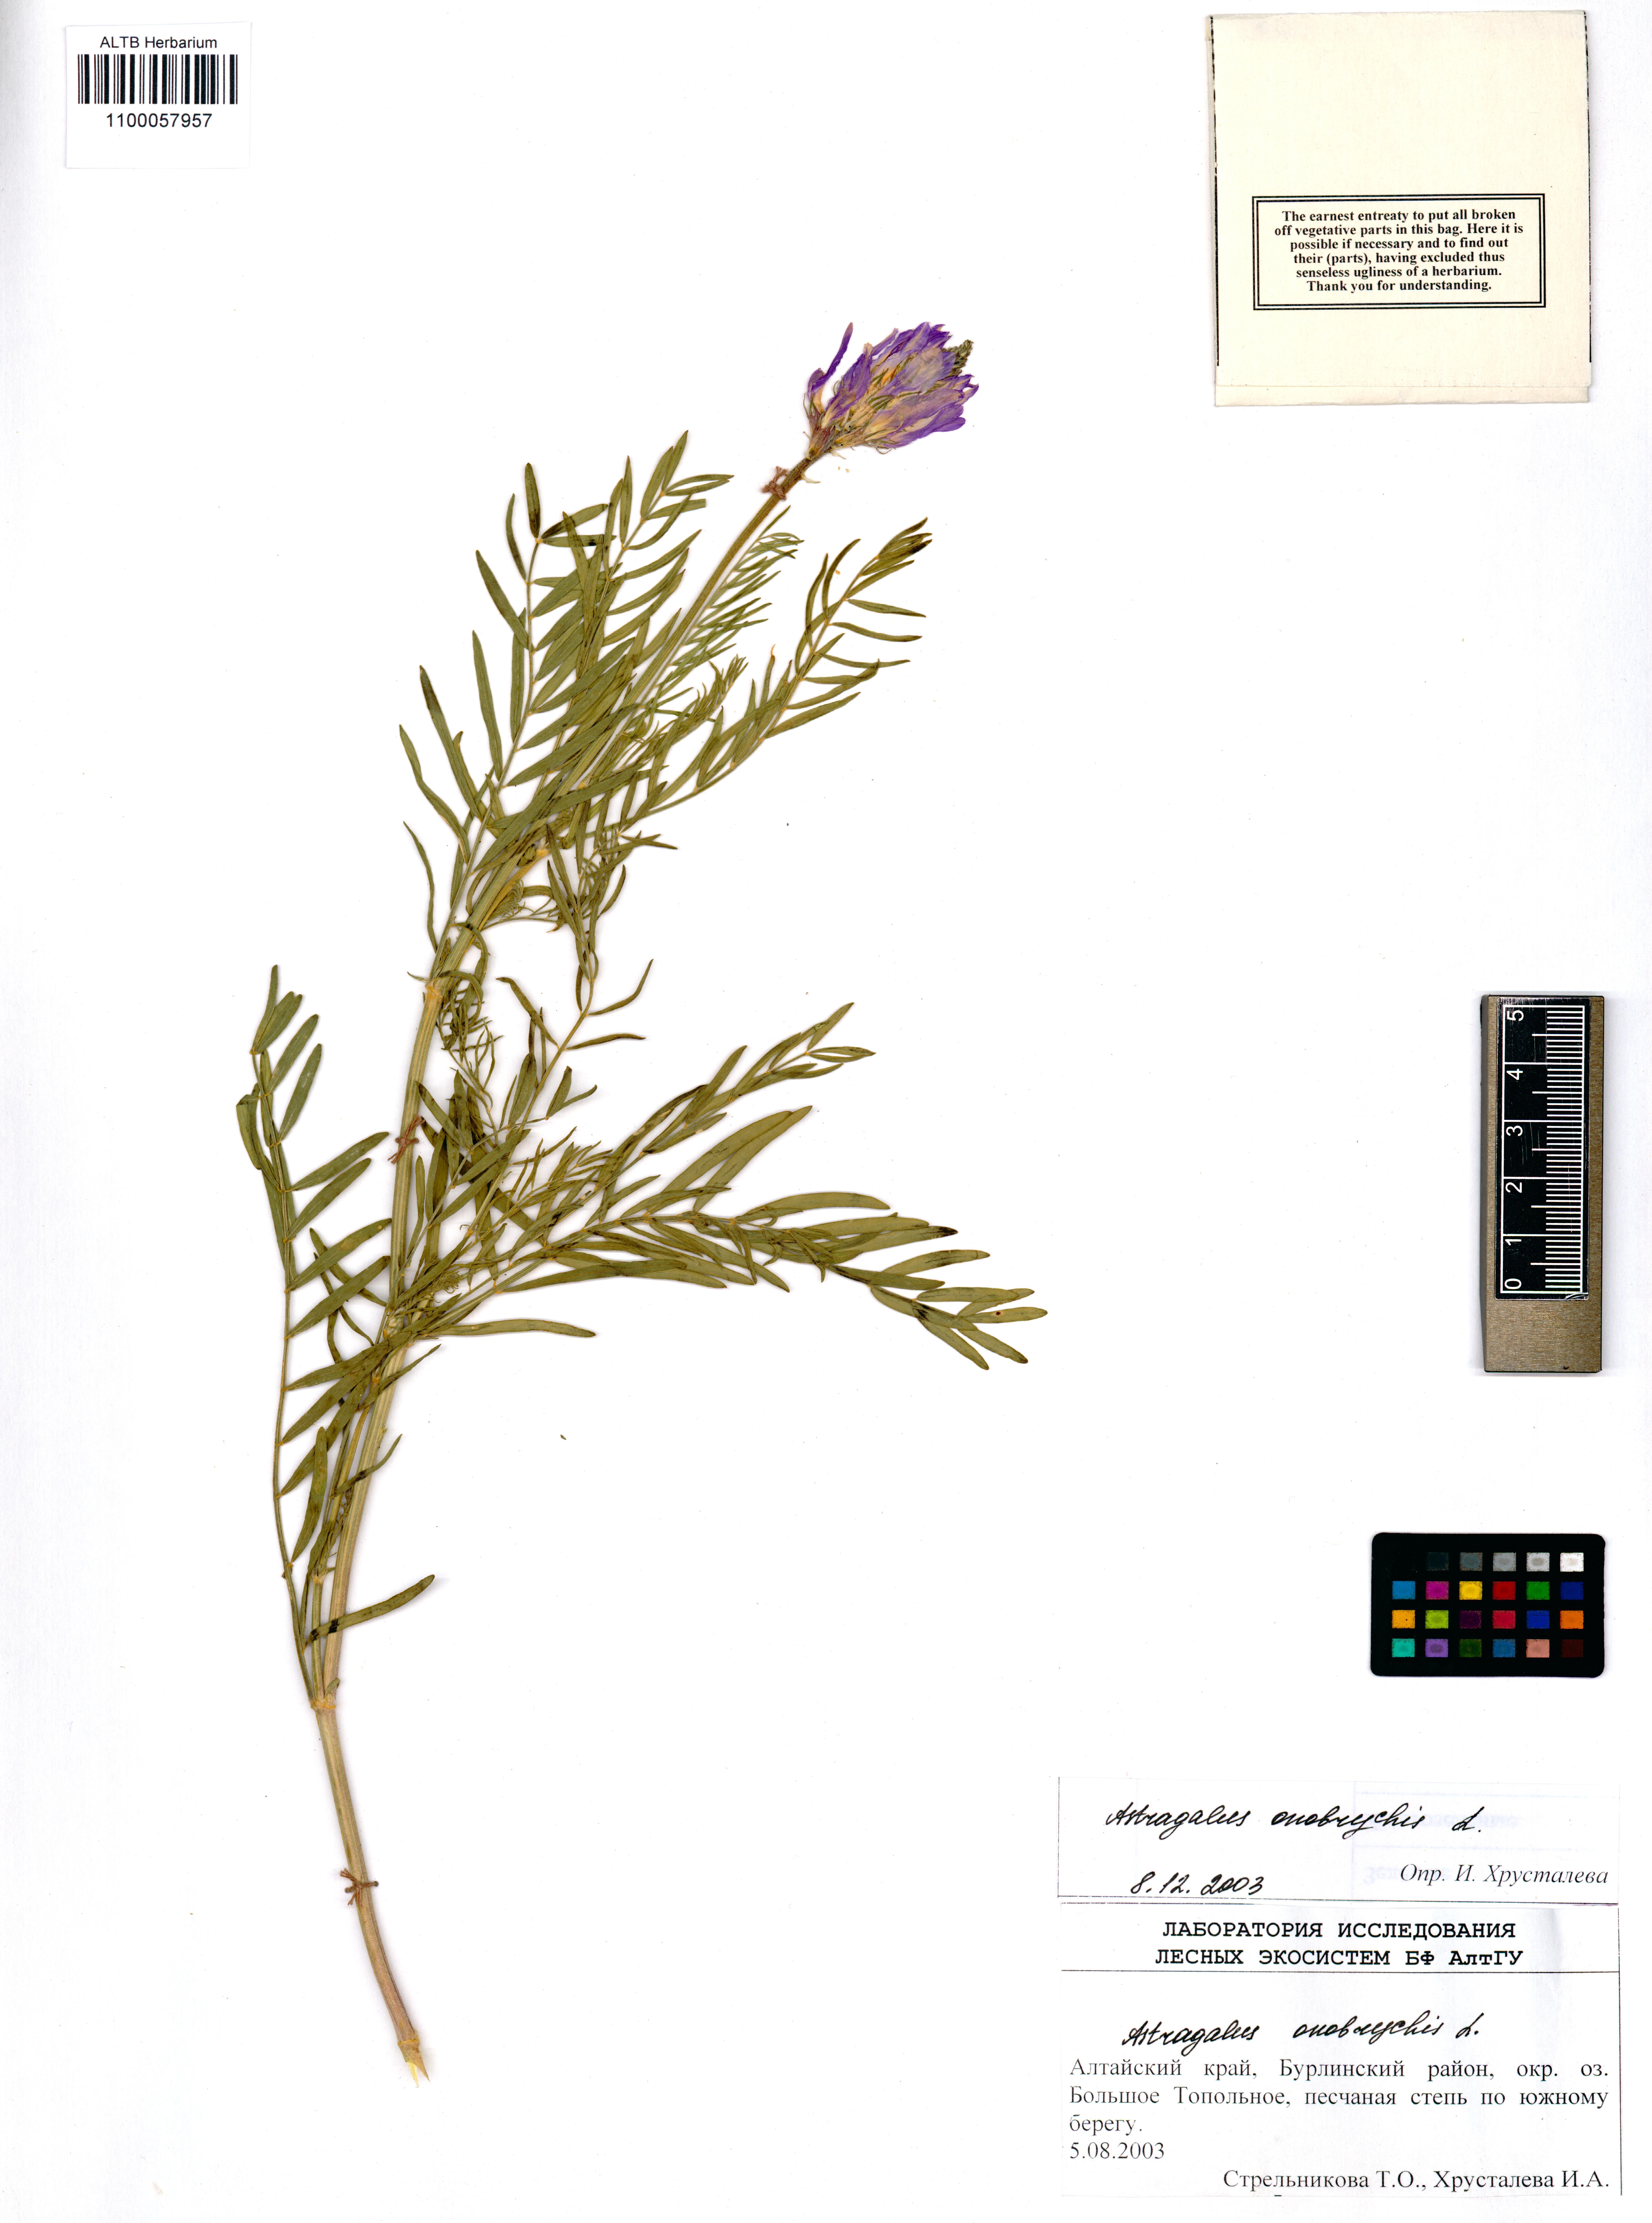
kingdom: Plantae
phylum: Tracheophyta
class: Magnoliopsida
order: Fabales
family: Fabaceae
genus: Astragalus
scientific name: Astragalus onobrychis
